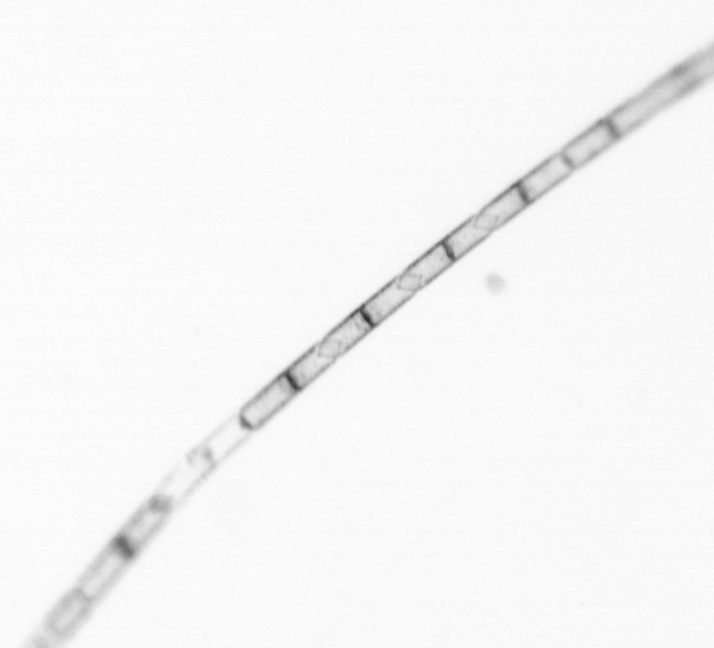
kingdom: Chromista
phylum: Ochrophyta
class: Bacillariophyceae
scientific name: Bacillariophyceae
